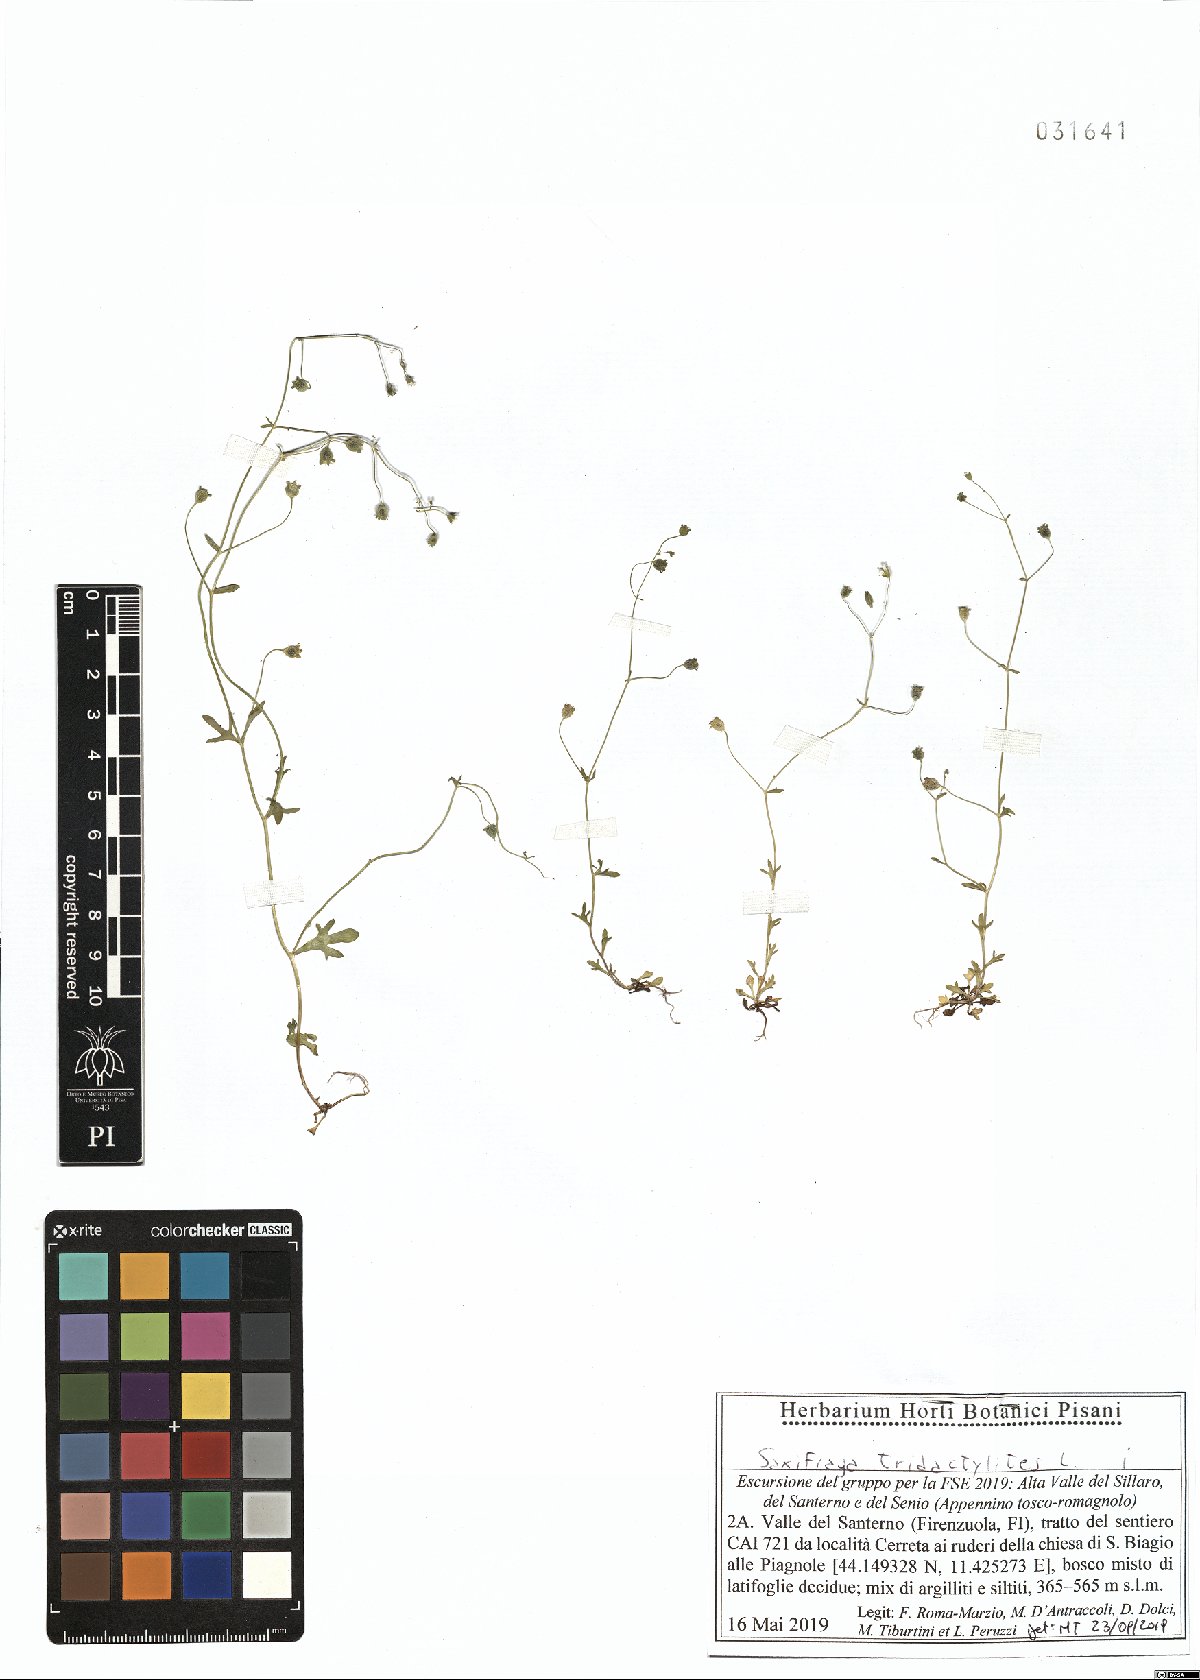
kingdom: Plantae
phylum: Tracheophyta
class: Magnoliopsida
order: Saxifragales
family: Saxifragaceae
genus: Saxifraga
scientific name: Saxifraga tridactylites
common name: Rue-leaved saxifrage
